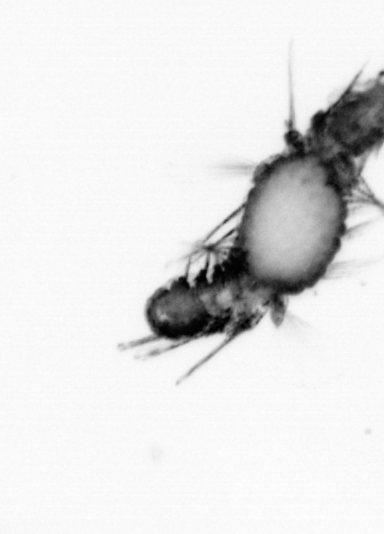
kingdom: Animalia
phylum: Annelida
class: Polychaeta
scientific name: Polychaeta
